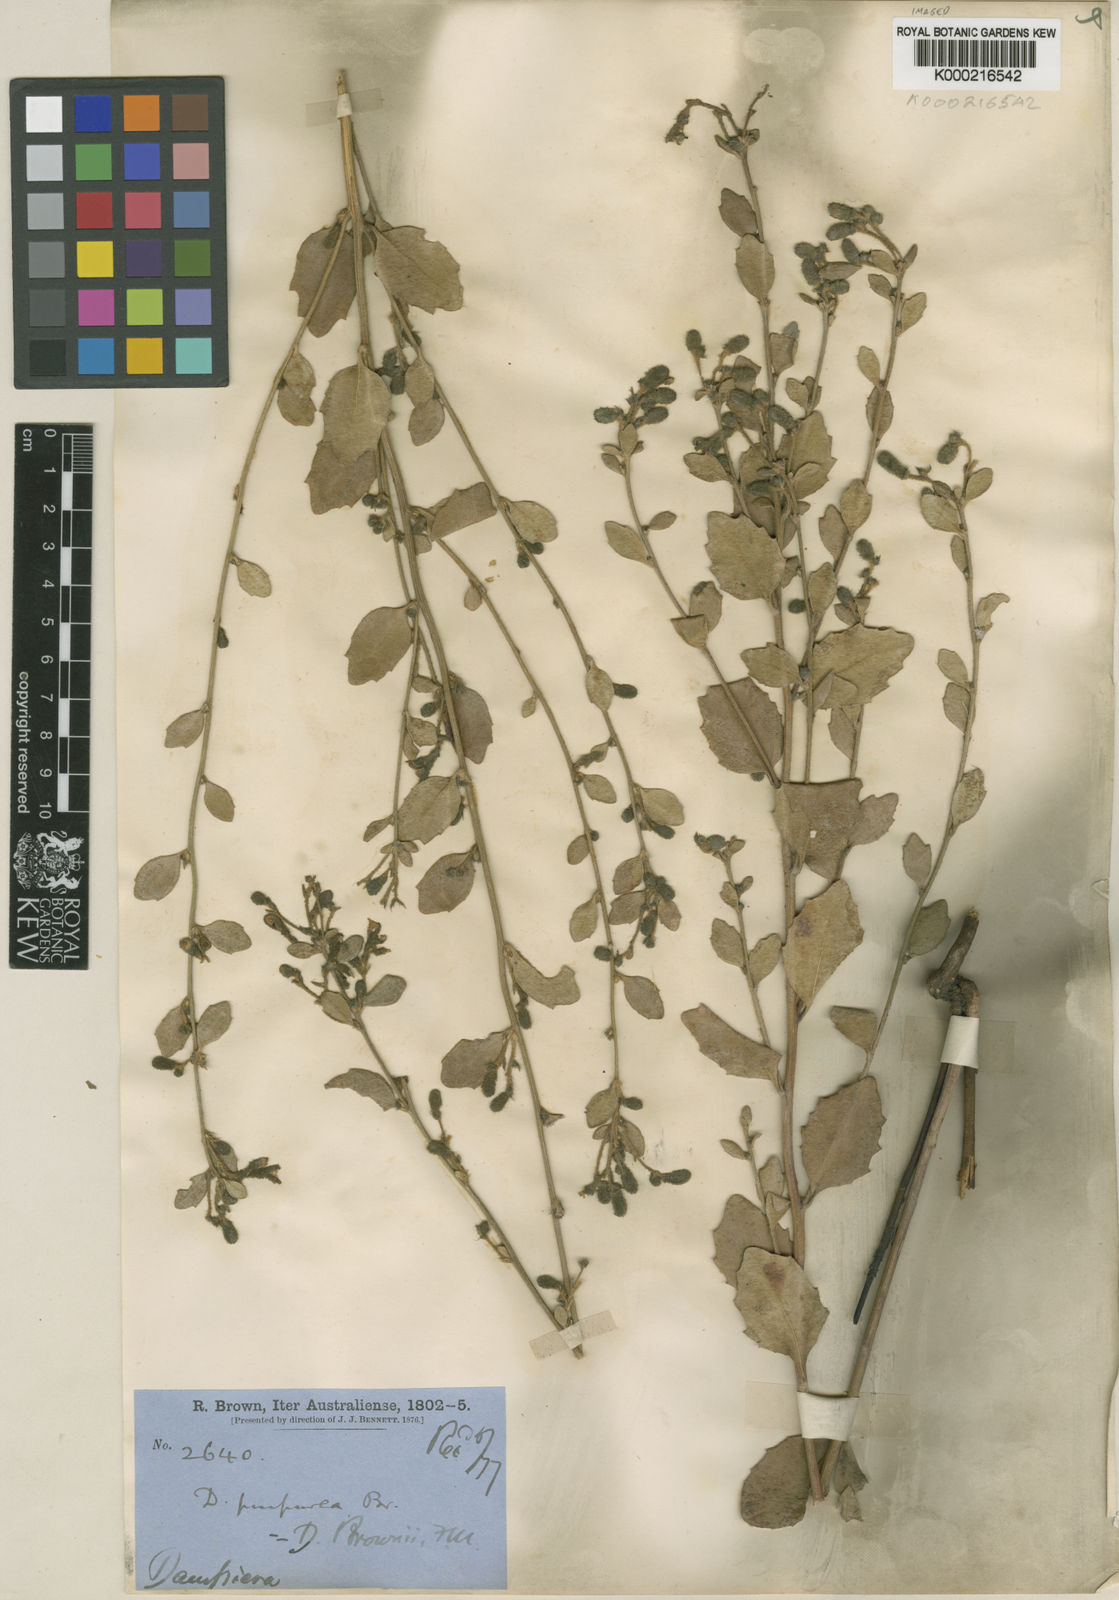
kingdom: Plantae
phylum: Tracheophyta
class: Magnoliopsida
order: Asterales
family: Goodeniaceae
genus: Dampiera
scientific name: Dampiera purpurea
